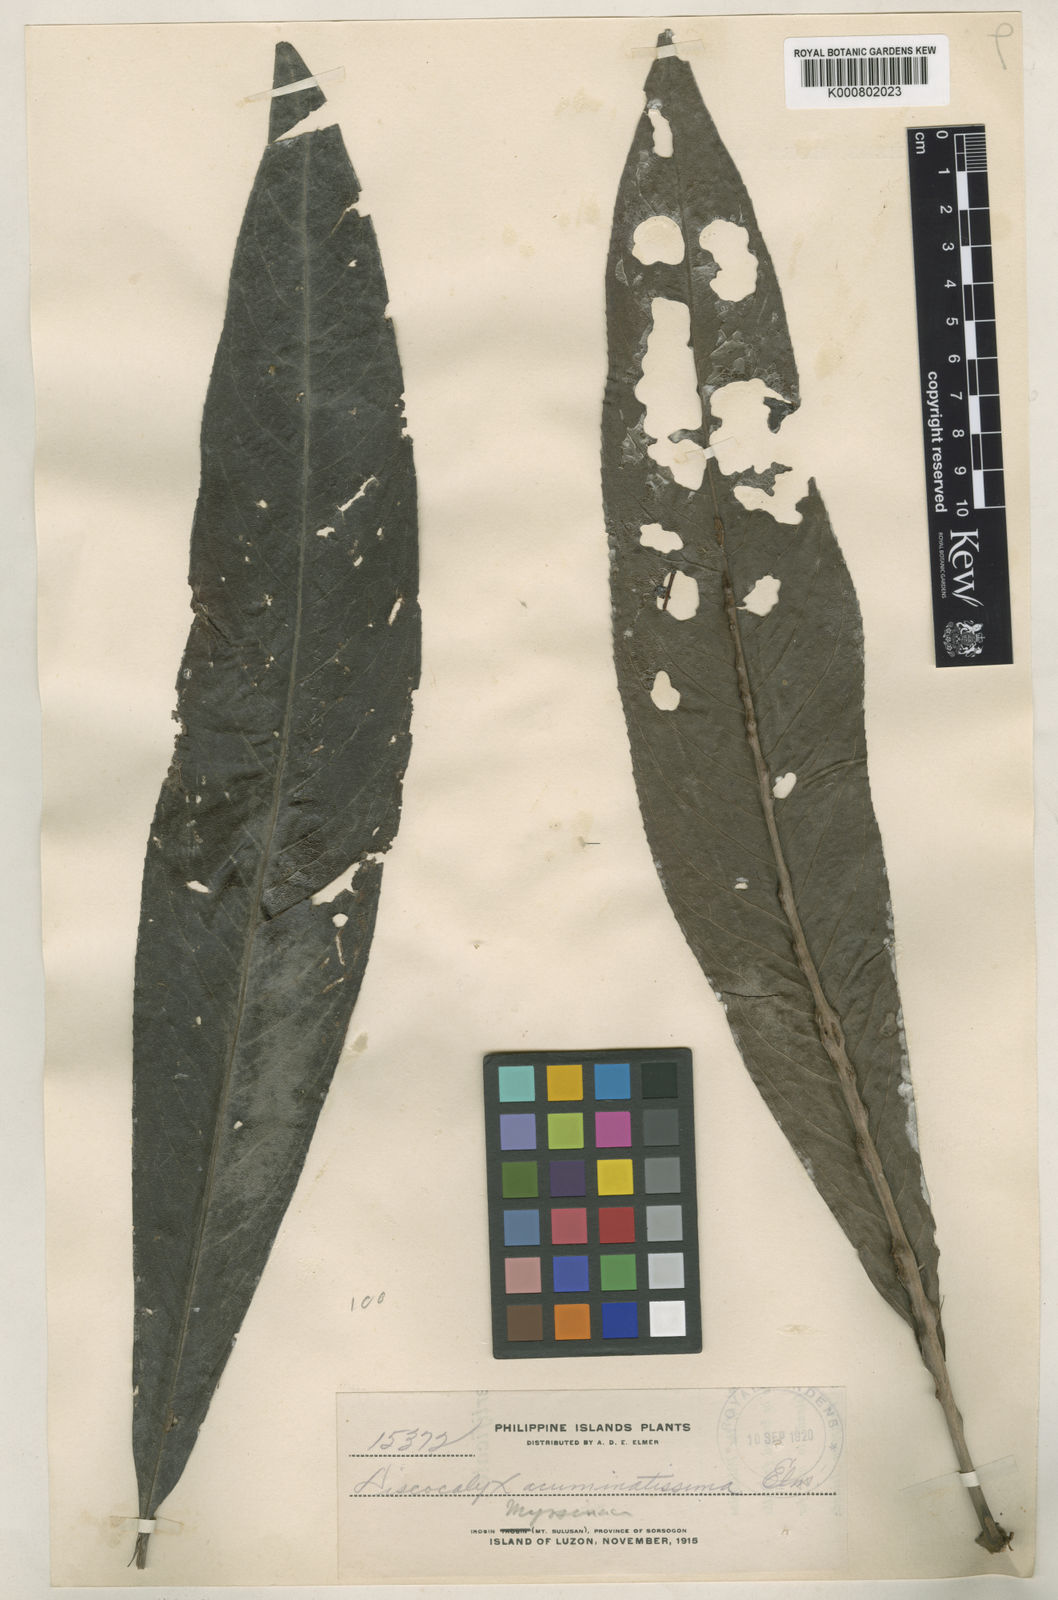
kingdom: Plantae
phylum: Tracheophyta
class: Magnoliopsida
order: Ericales
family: Primulaceae
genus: Discocalyx
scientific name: Discocalyx
